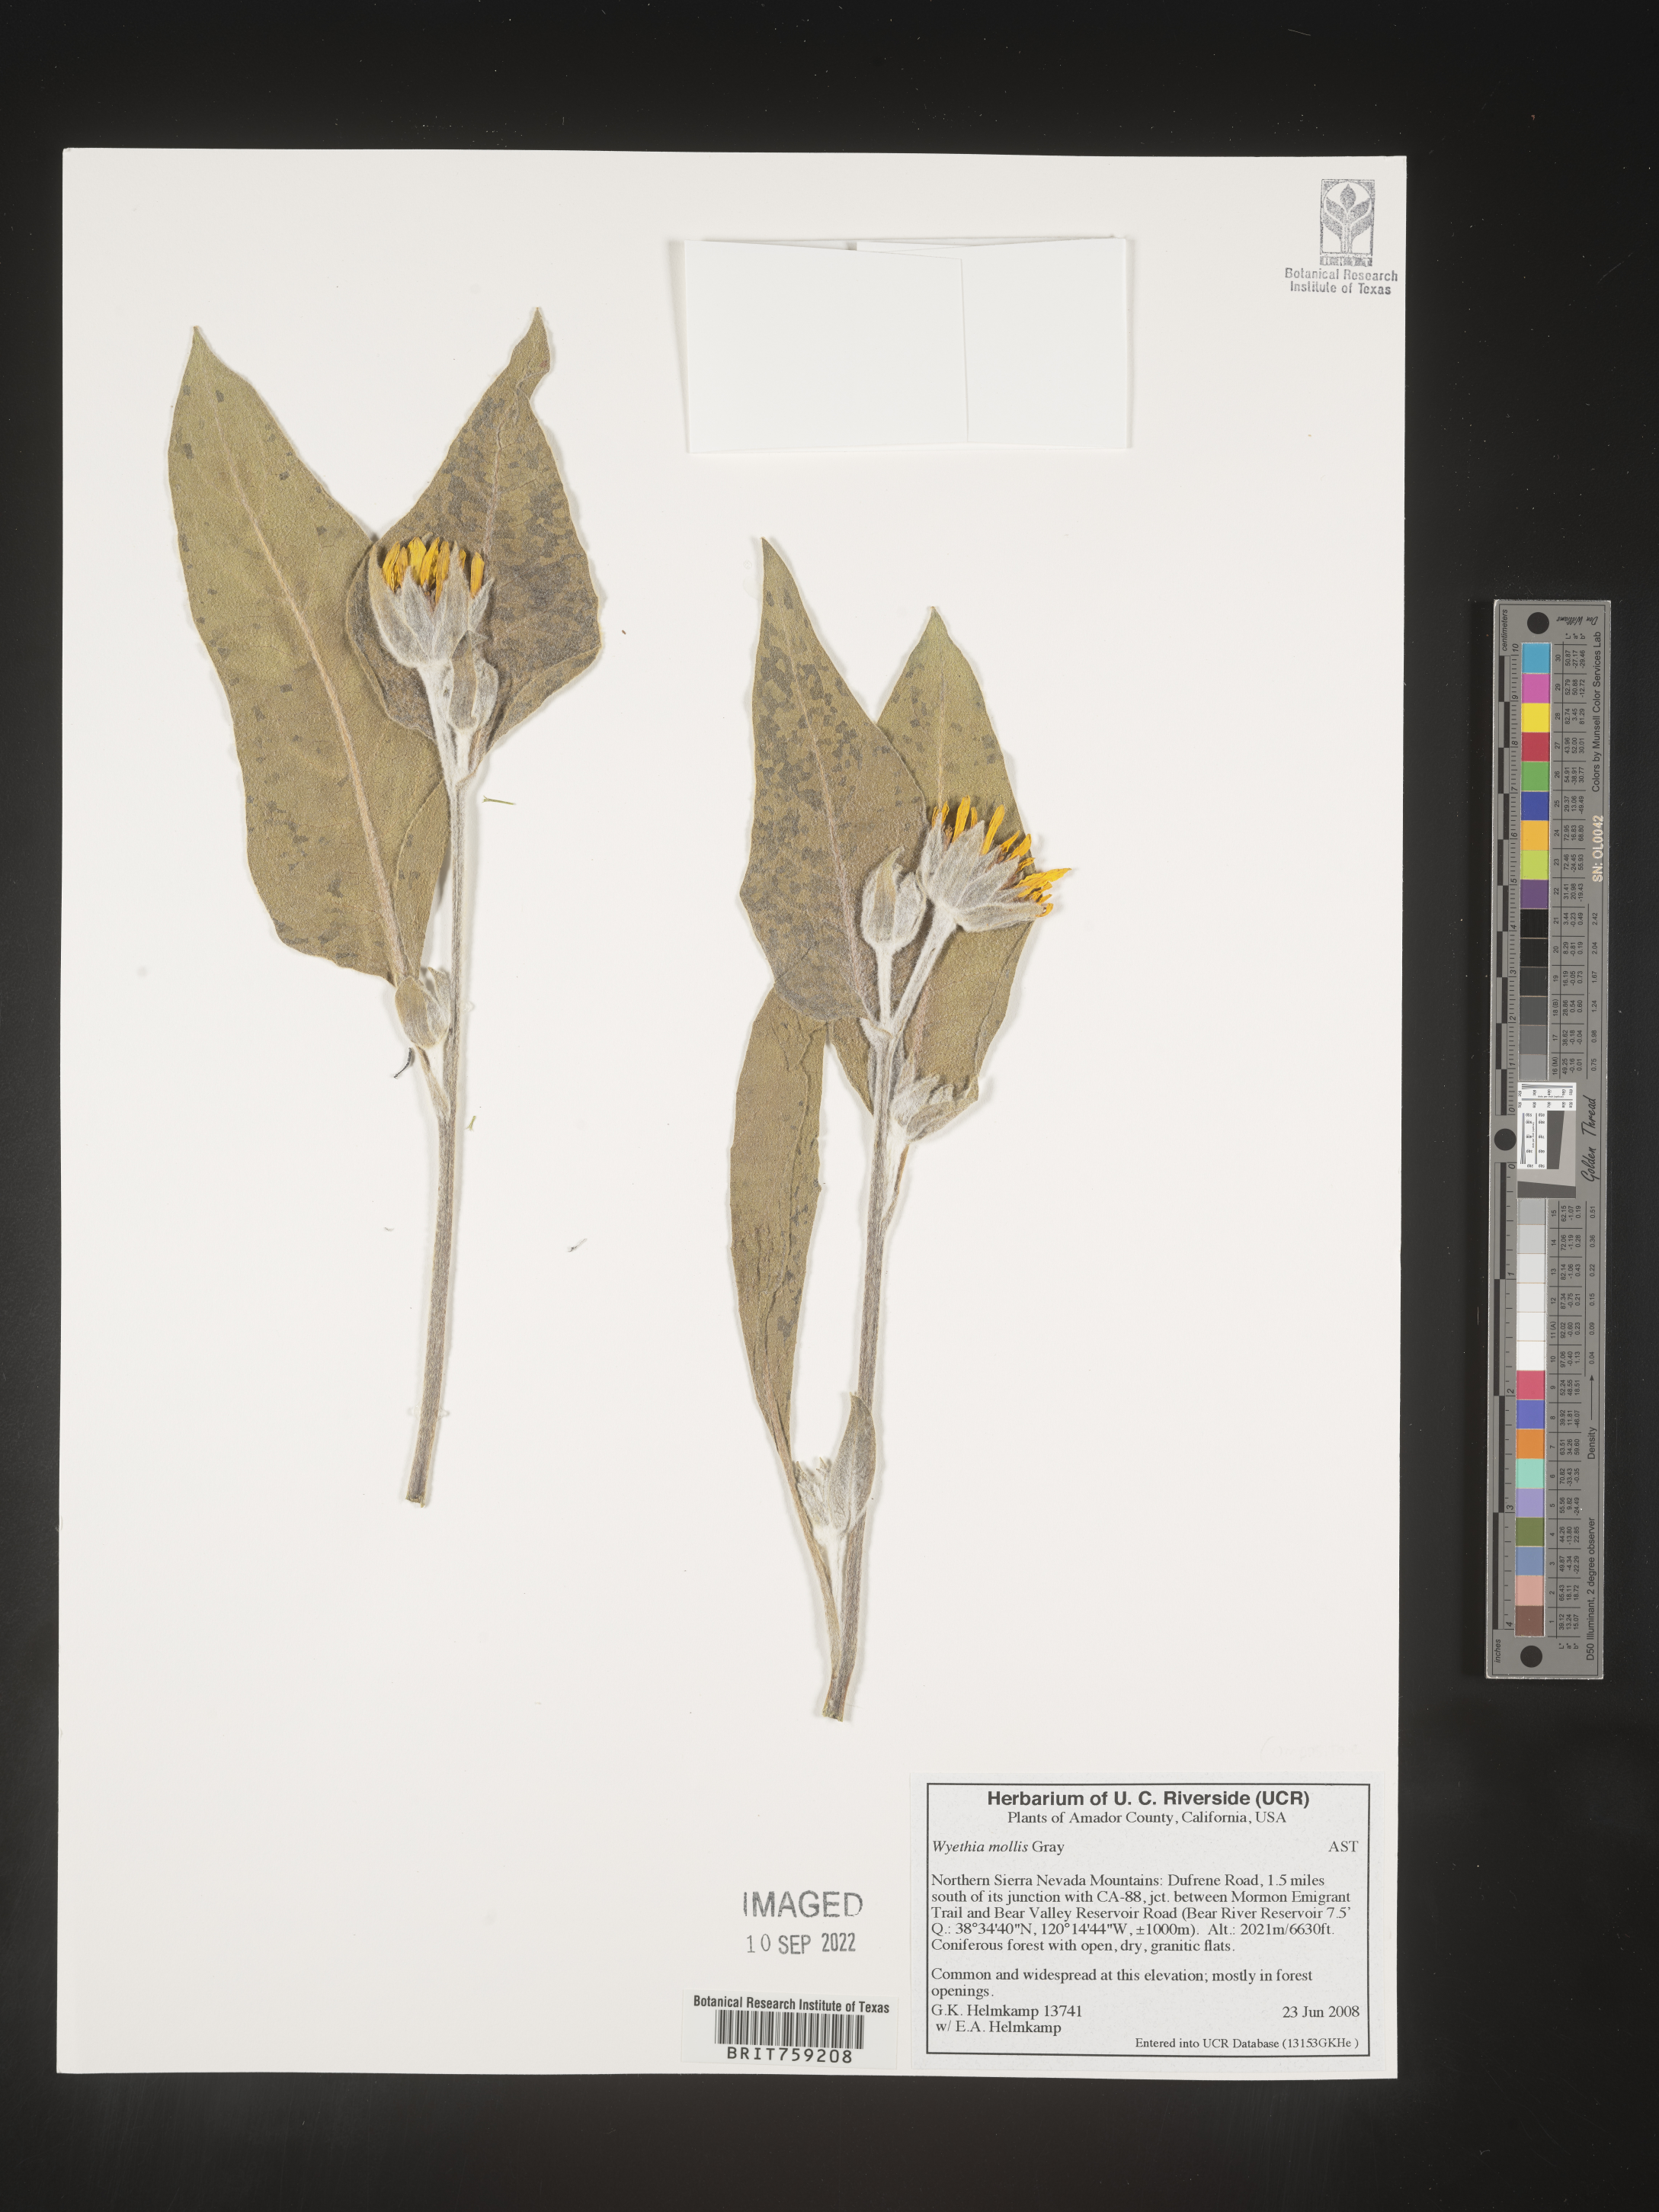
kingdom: Plantae
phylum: Tracheophyta
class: Magnoliopsida
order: Asterales
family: Asteraceae
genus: Wyethia
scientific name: Wyethia mollis
